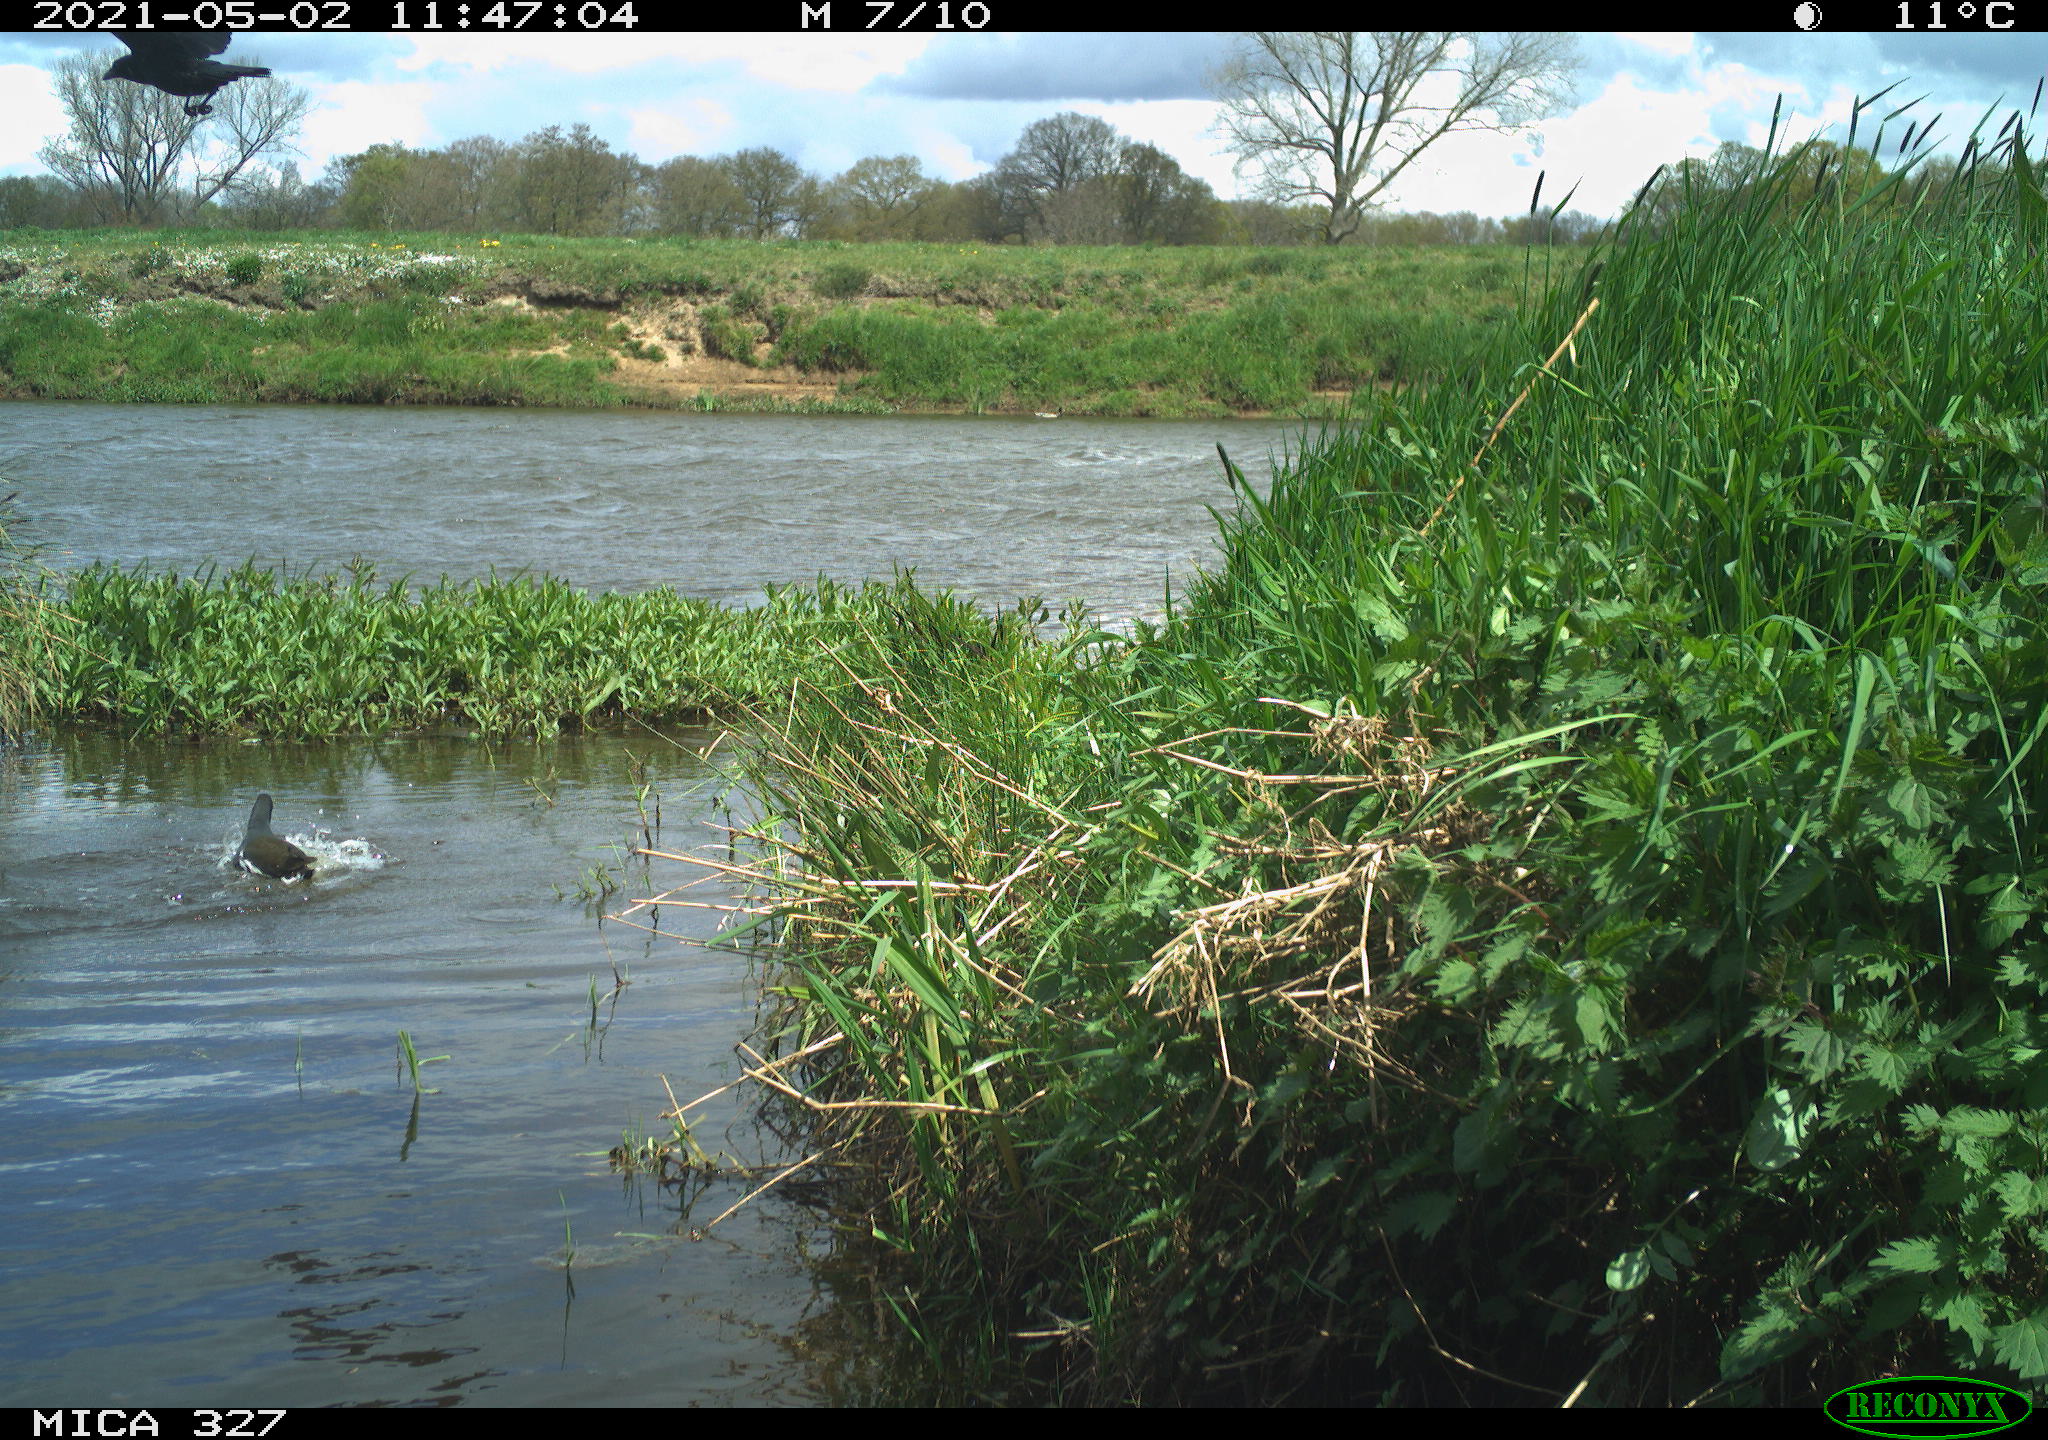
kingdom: Animalia
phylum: Chordata
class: Aves
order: Gruiformes
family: Rallidae
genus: Gallinula
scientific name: Gallinula chloropus
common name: Common moorhen
